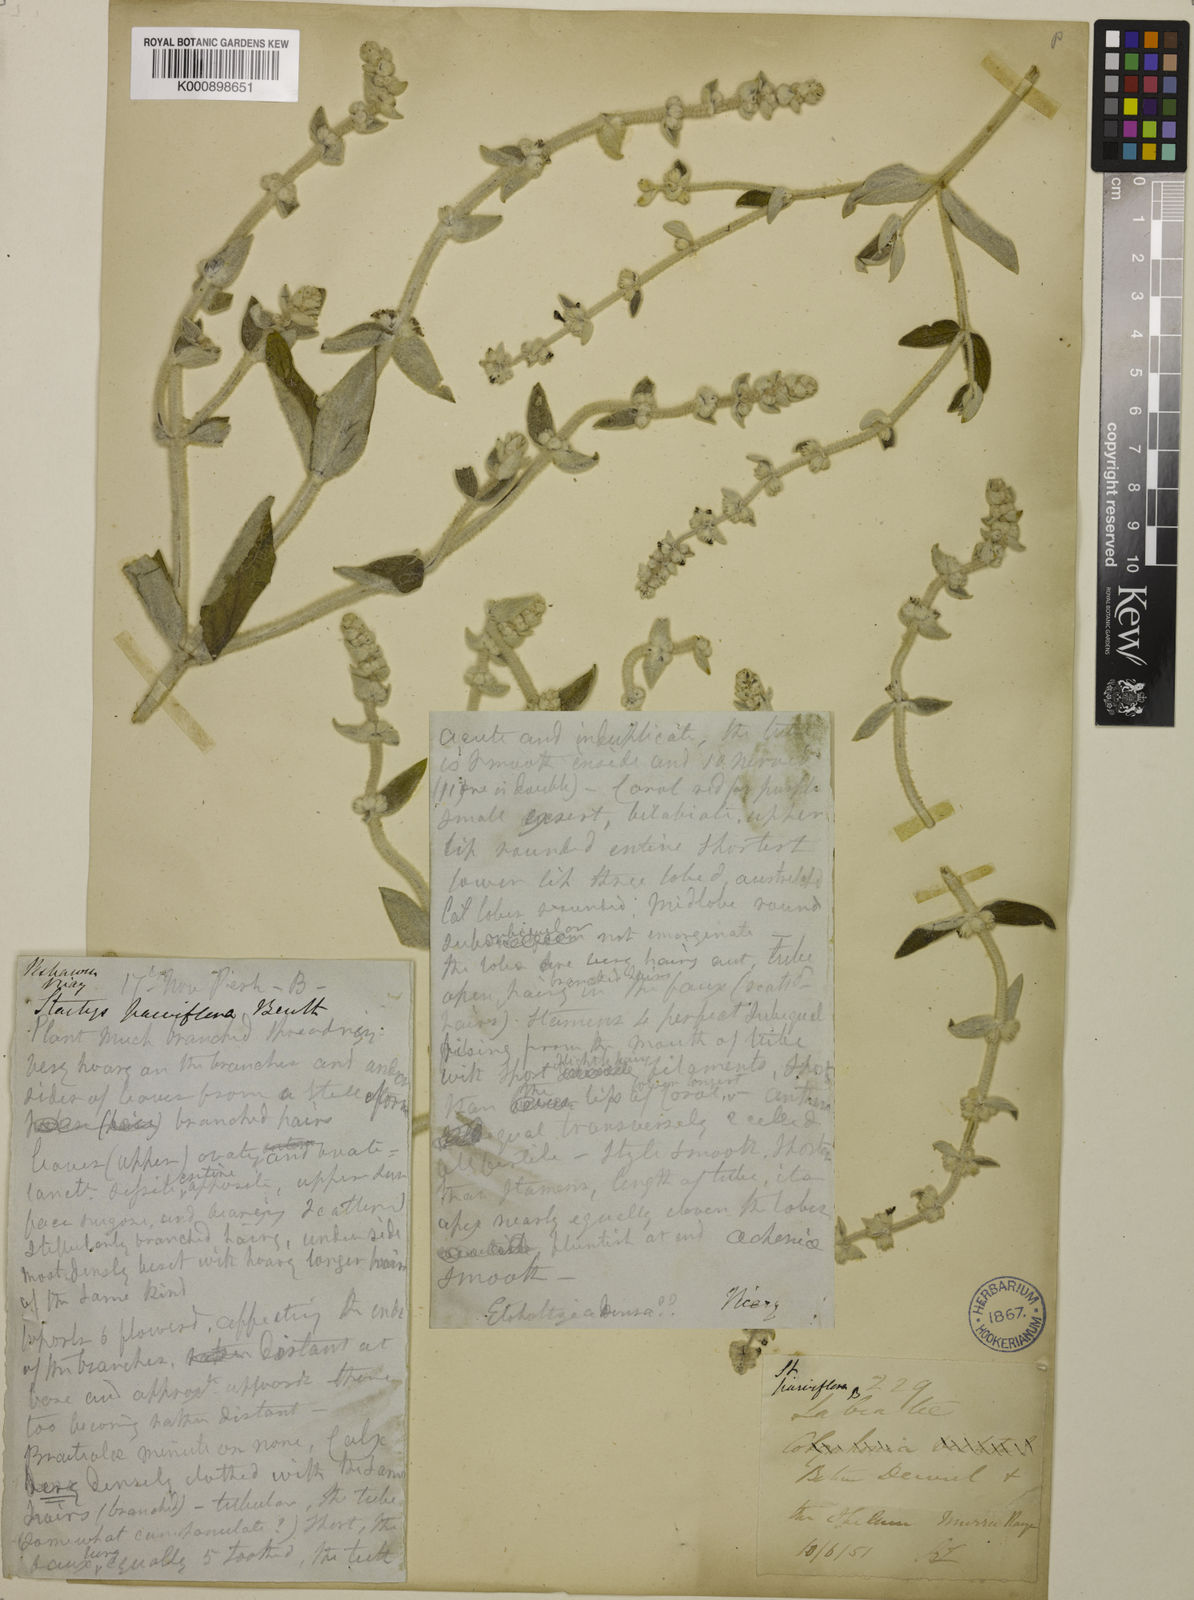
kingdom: Plantae
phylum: Tracheophyta
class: Magnoliopsida
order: Lamiales
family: Lamiaceae
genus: Phlomidoschema
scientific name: Phlomidoschema parviflorum
